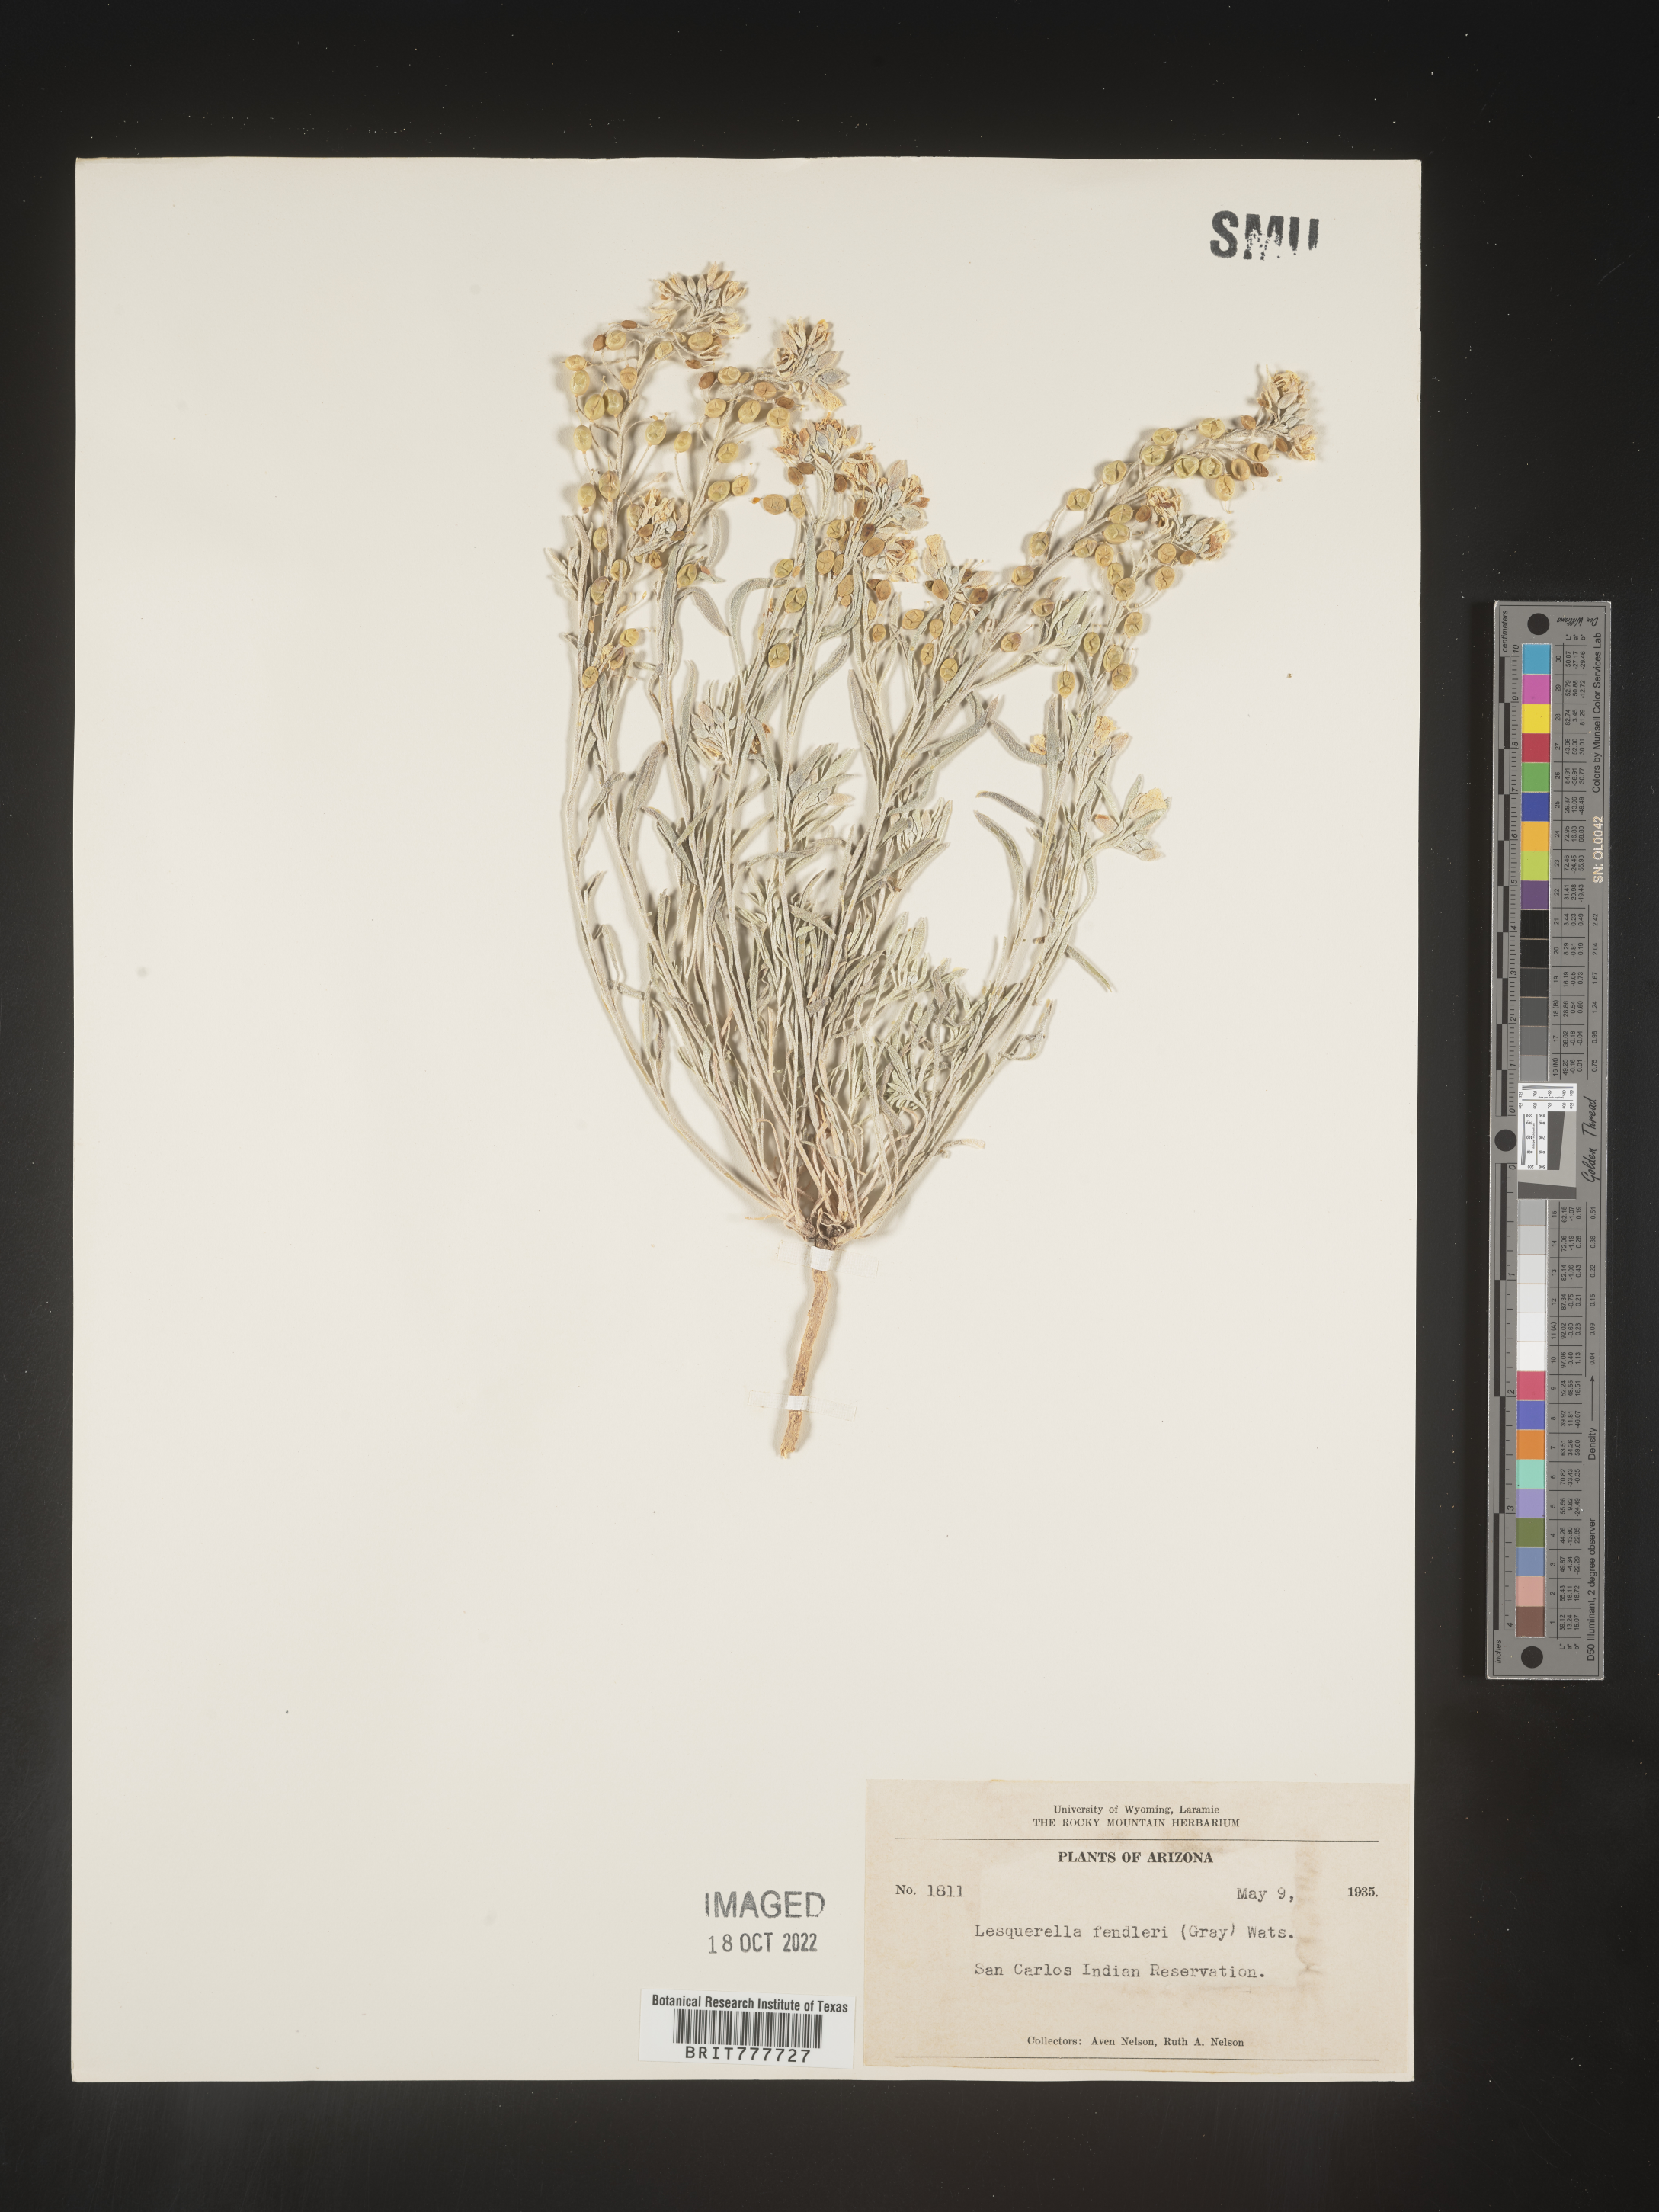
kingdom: Plantae
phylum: Tracheophyta
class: Magnoliopsida
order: Brassicales
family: Brassicaceae
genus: Physaria
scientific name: Physaria fendleri
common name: Fendler's bladderpod
